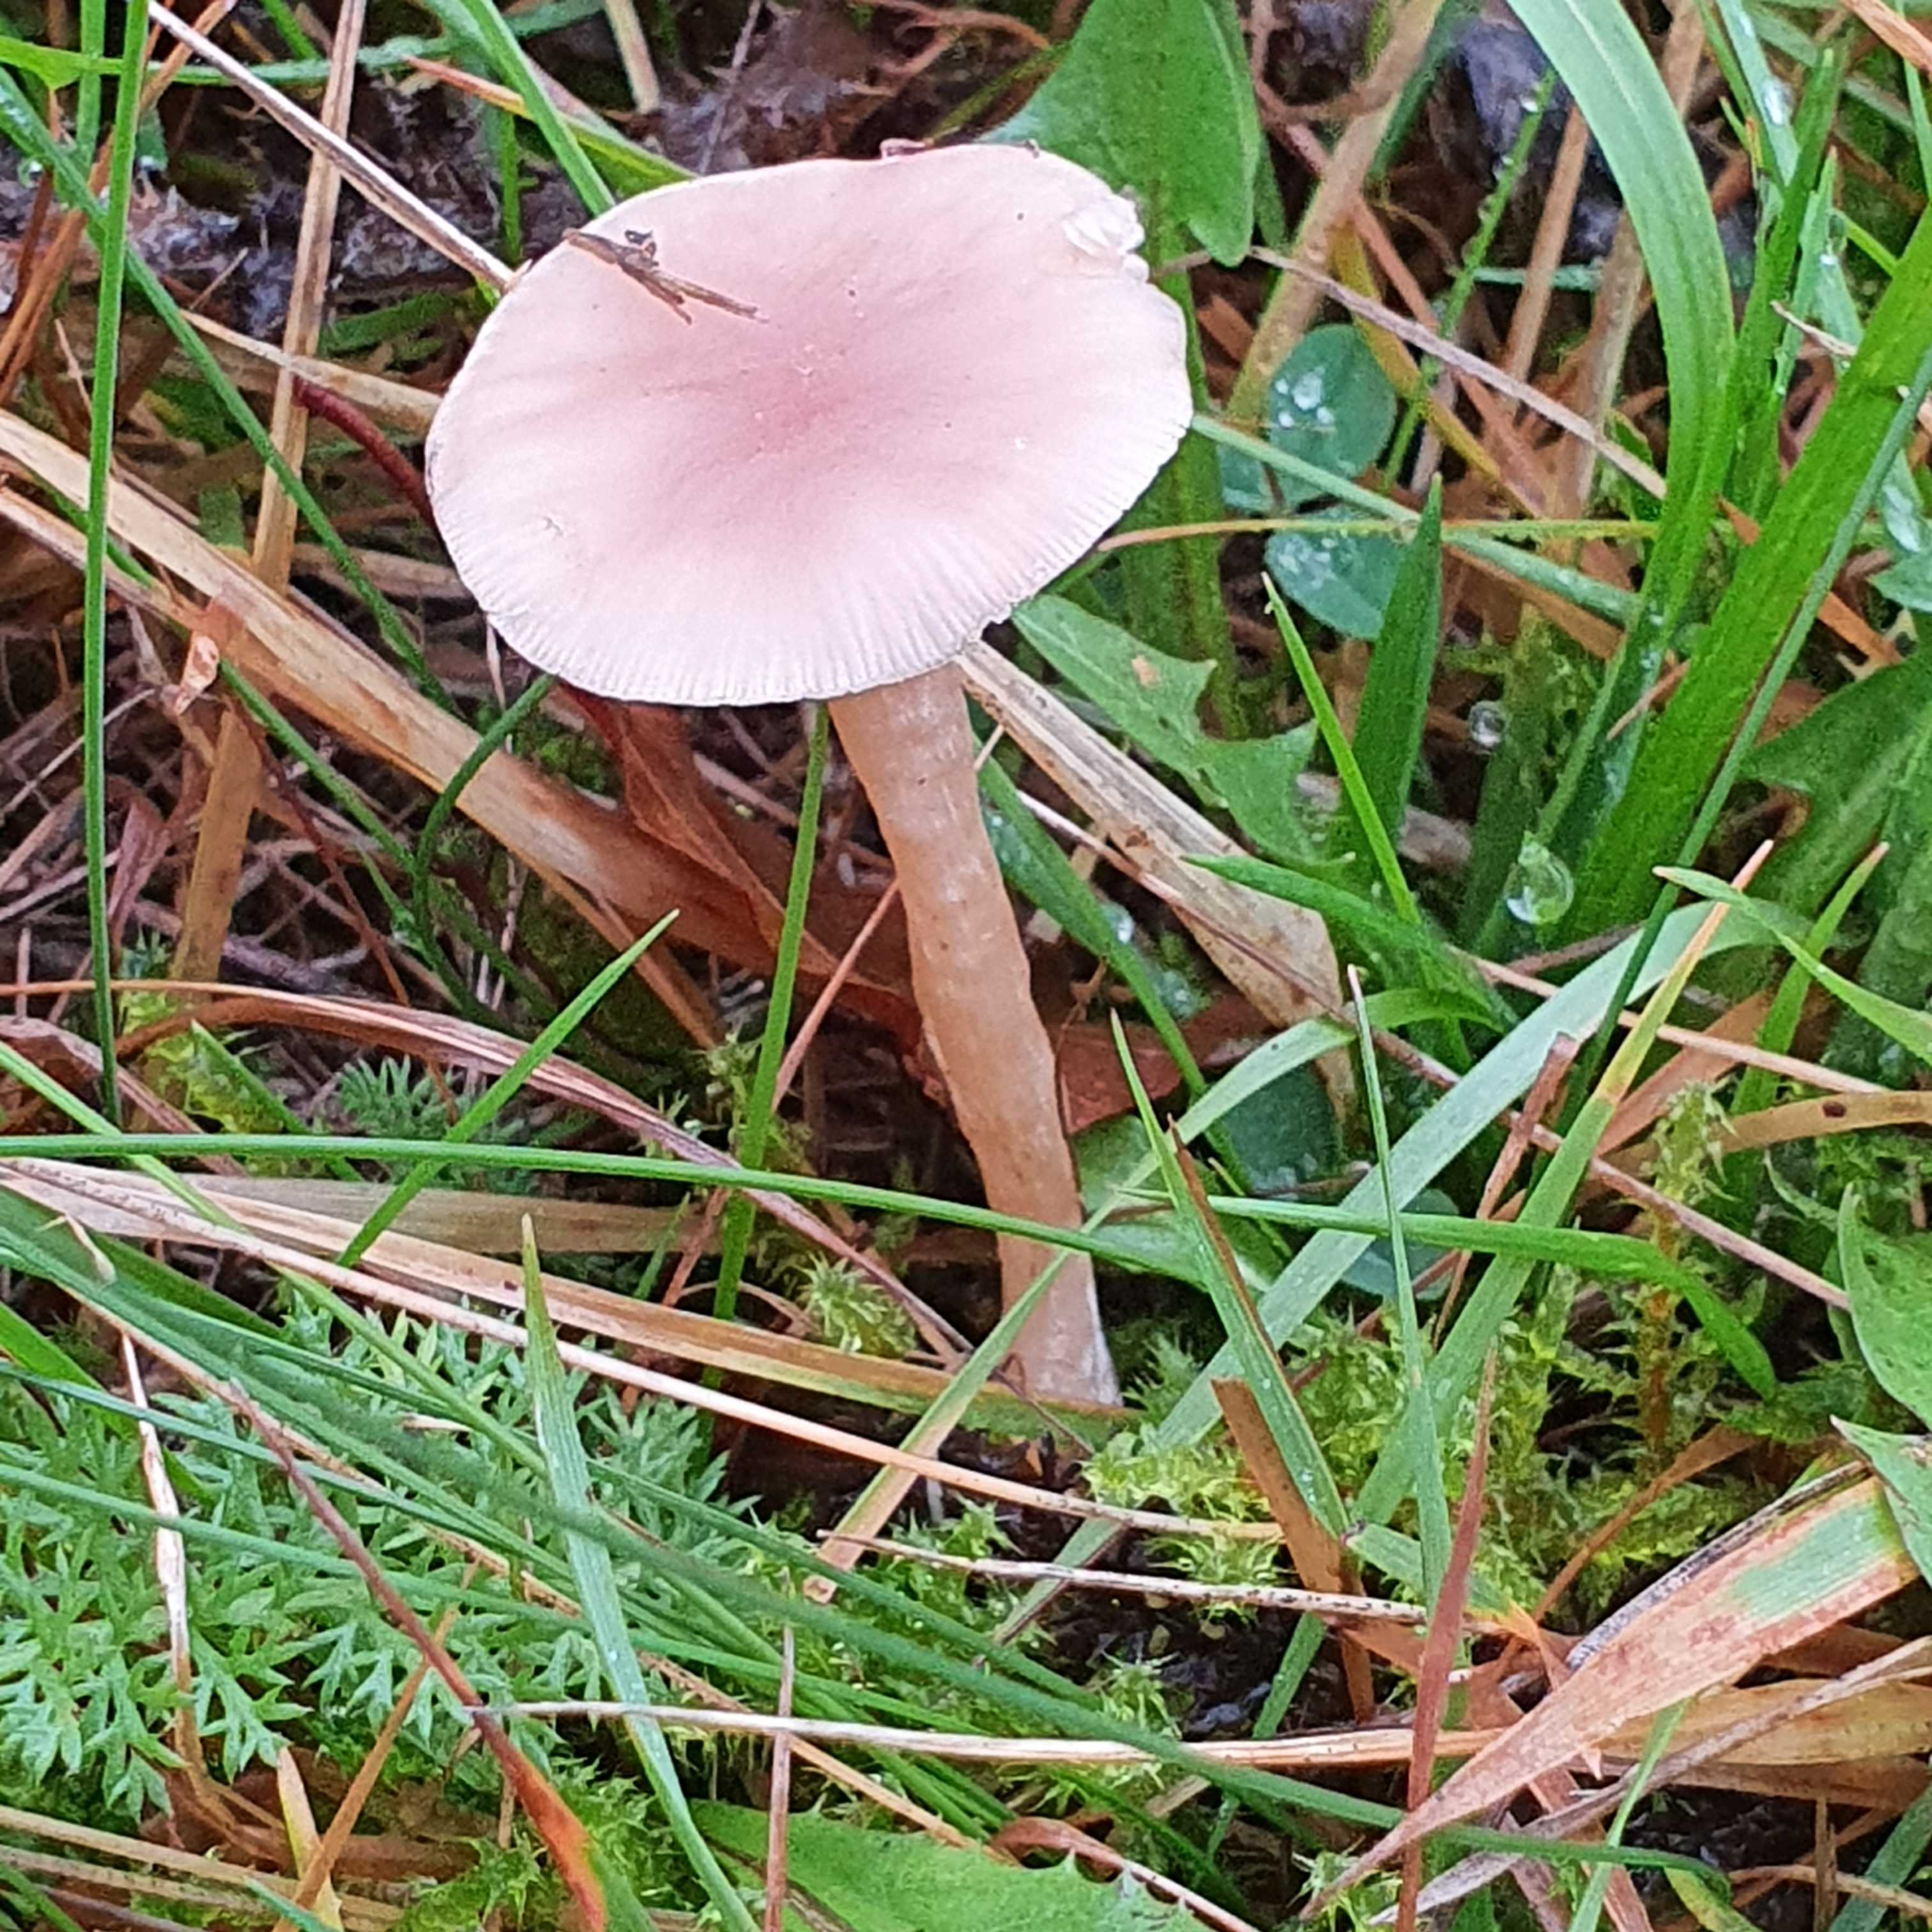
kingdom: Fungi
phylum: Basidiomycota
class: Agaricomycetes
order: Agaricales
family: Tricholomataceae
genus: Clitocybe
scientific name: Clitocybe fragrans
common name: vellugtende tragthat
